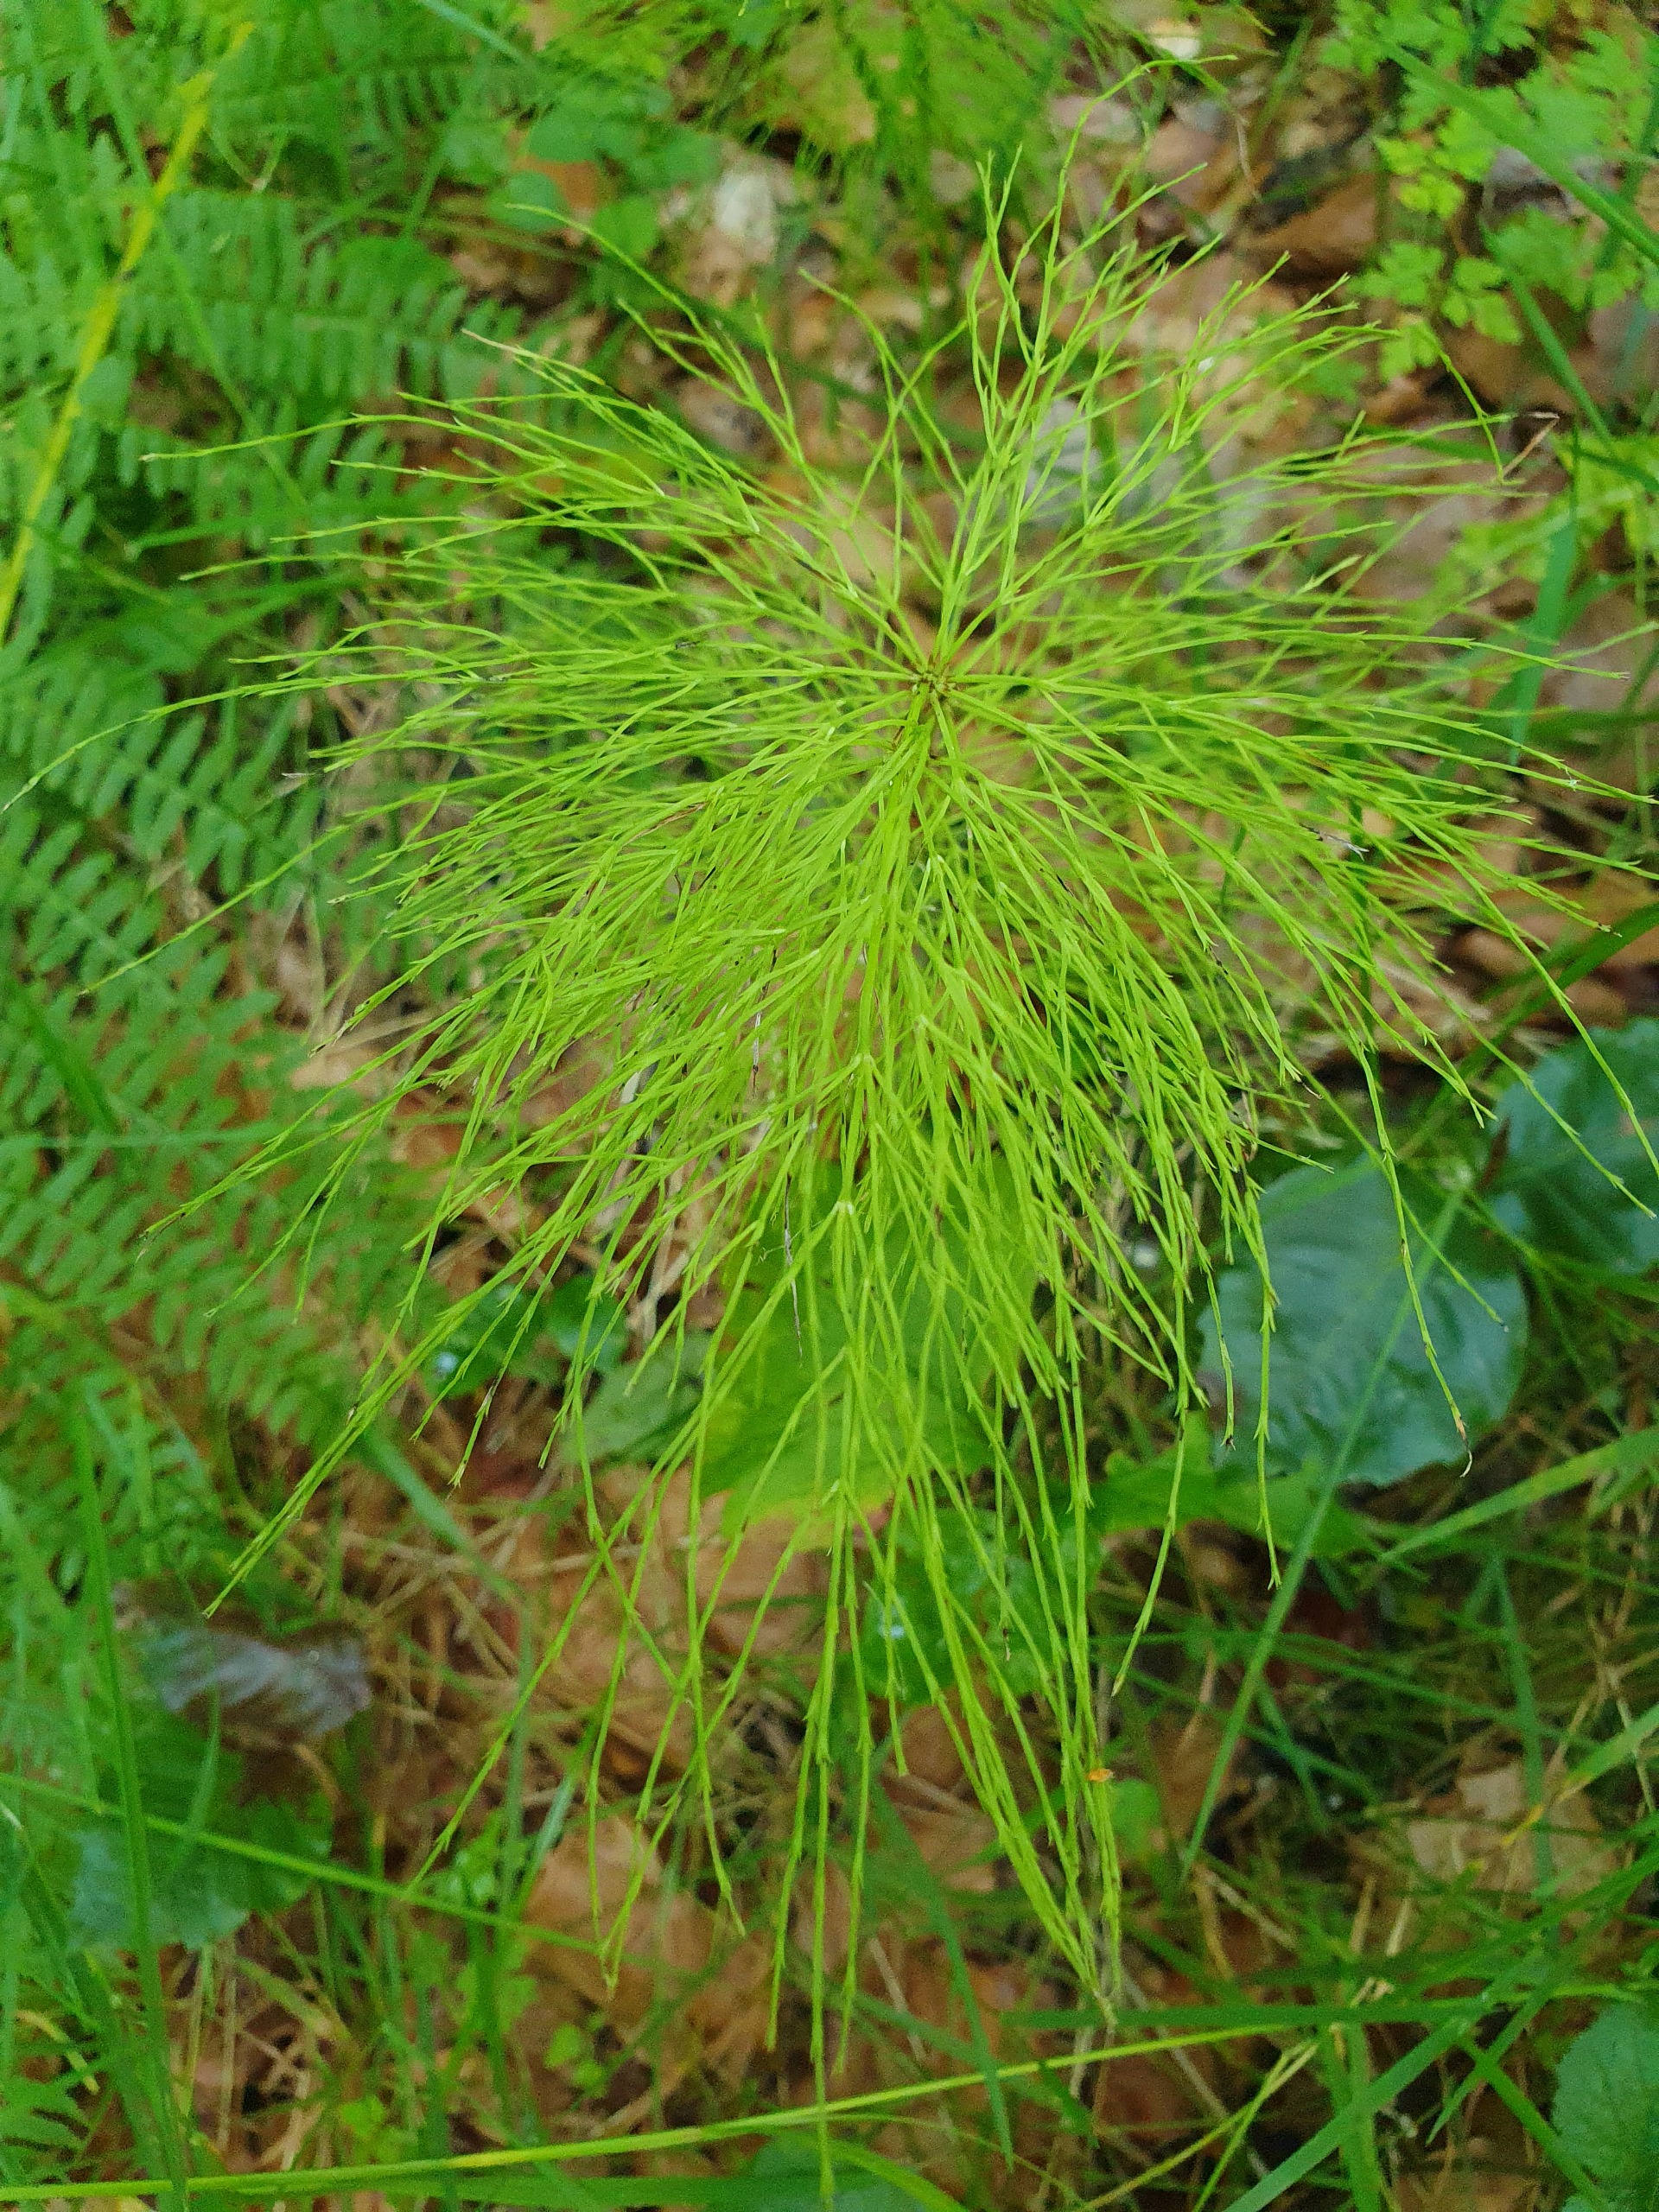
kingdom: Plantae
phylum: Tracheophyta
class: Polypodiopsida
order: Equisetales
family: Equisetaceae
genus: Equisetum
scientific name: Equisetum sylvaticum
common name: Skov-padderok
